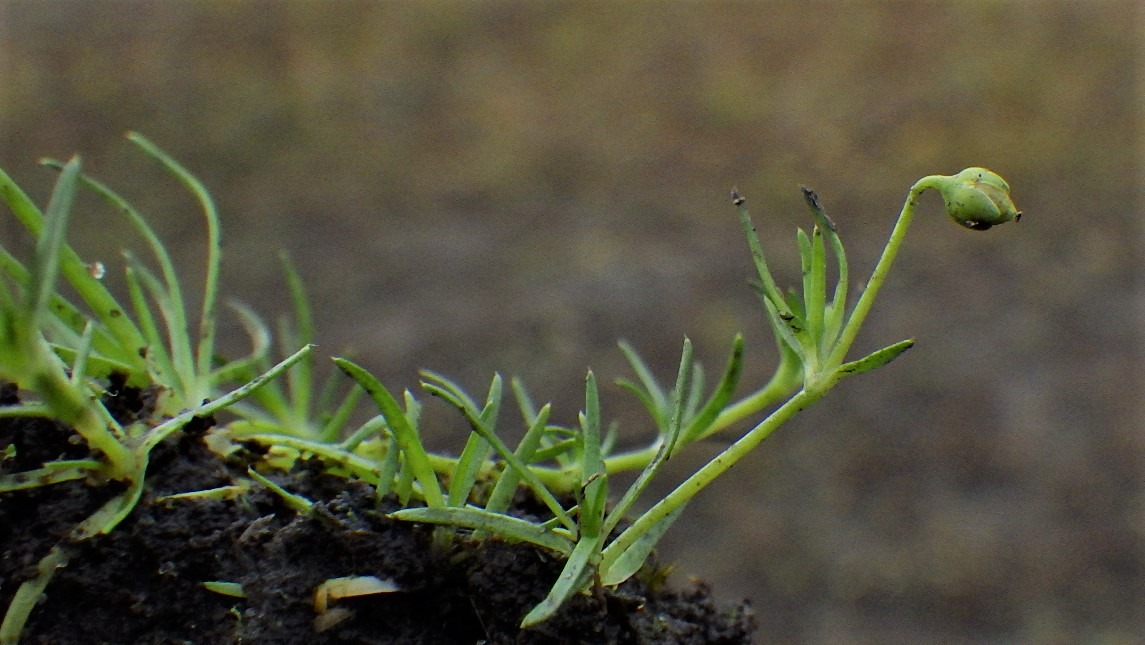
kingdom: Plantae
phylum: Tracheophyta
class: Magnoliopsida
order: Caryophyllales
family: Caryophyllaceae
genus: Sagina
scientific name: Sagina procumbens
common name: Almindelig firling
